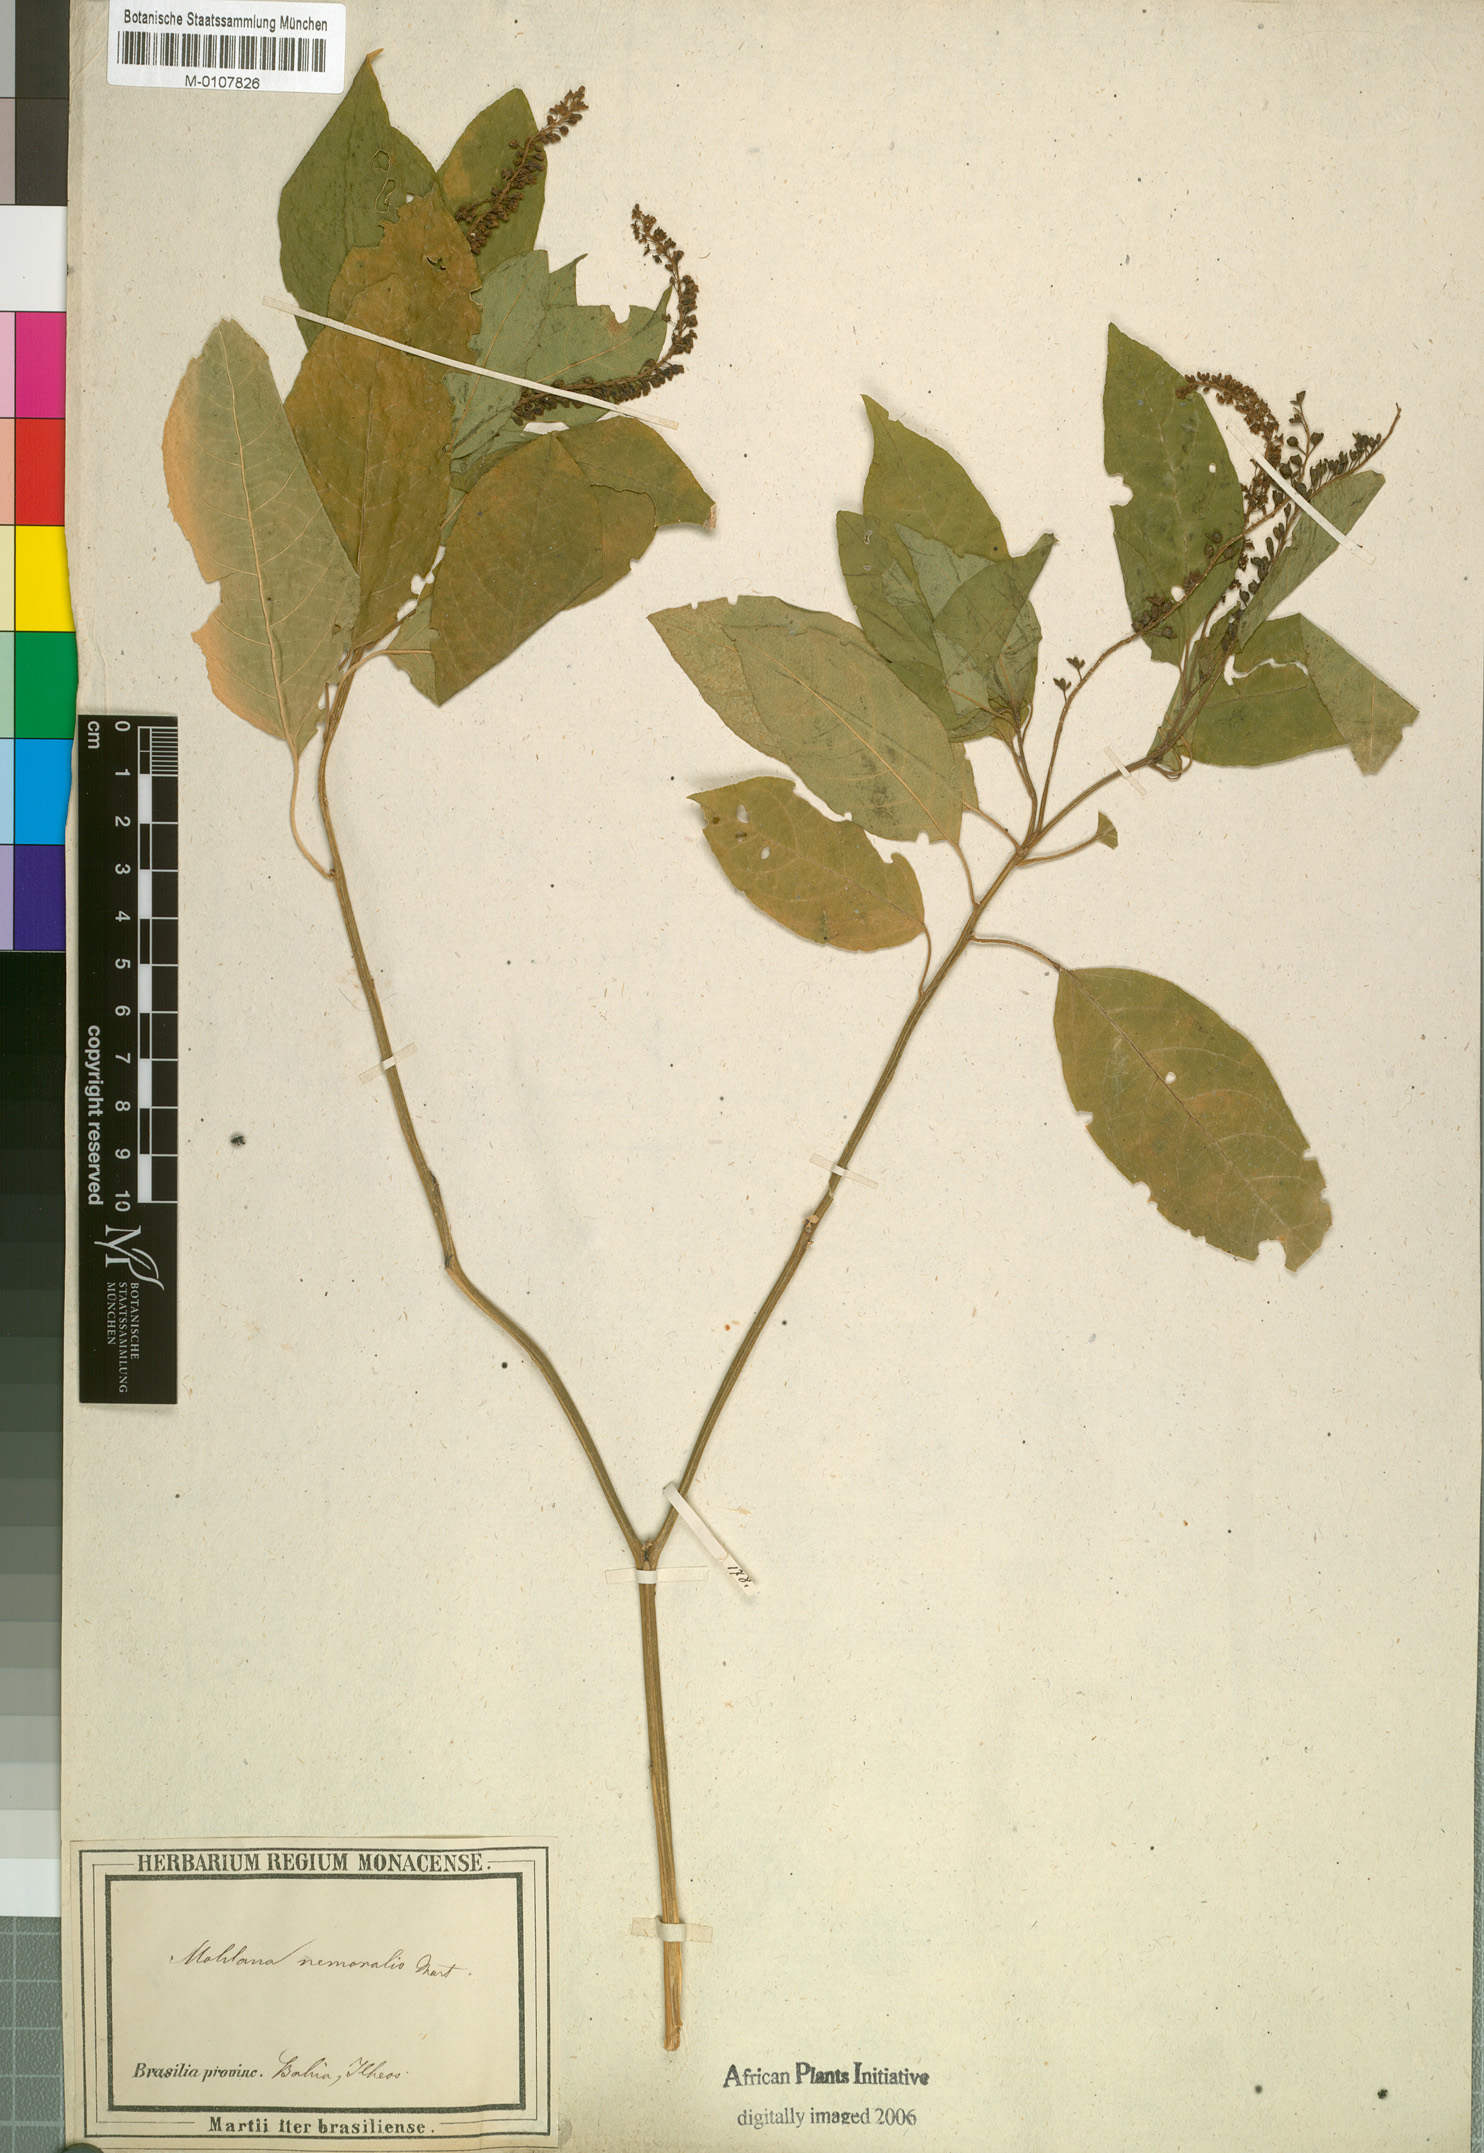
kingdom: Plantae
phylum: Tracheophyta
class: Magnoliopsida
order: Caryophyllales
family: Phytolaccaceae
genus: Hilleria
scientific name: Hilleria latifolia
